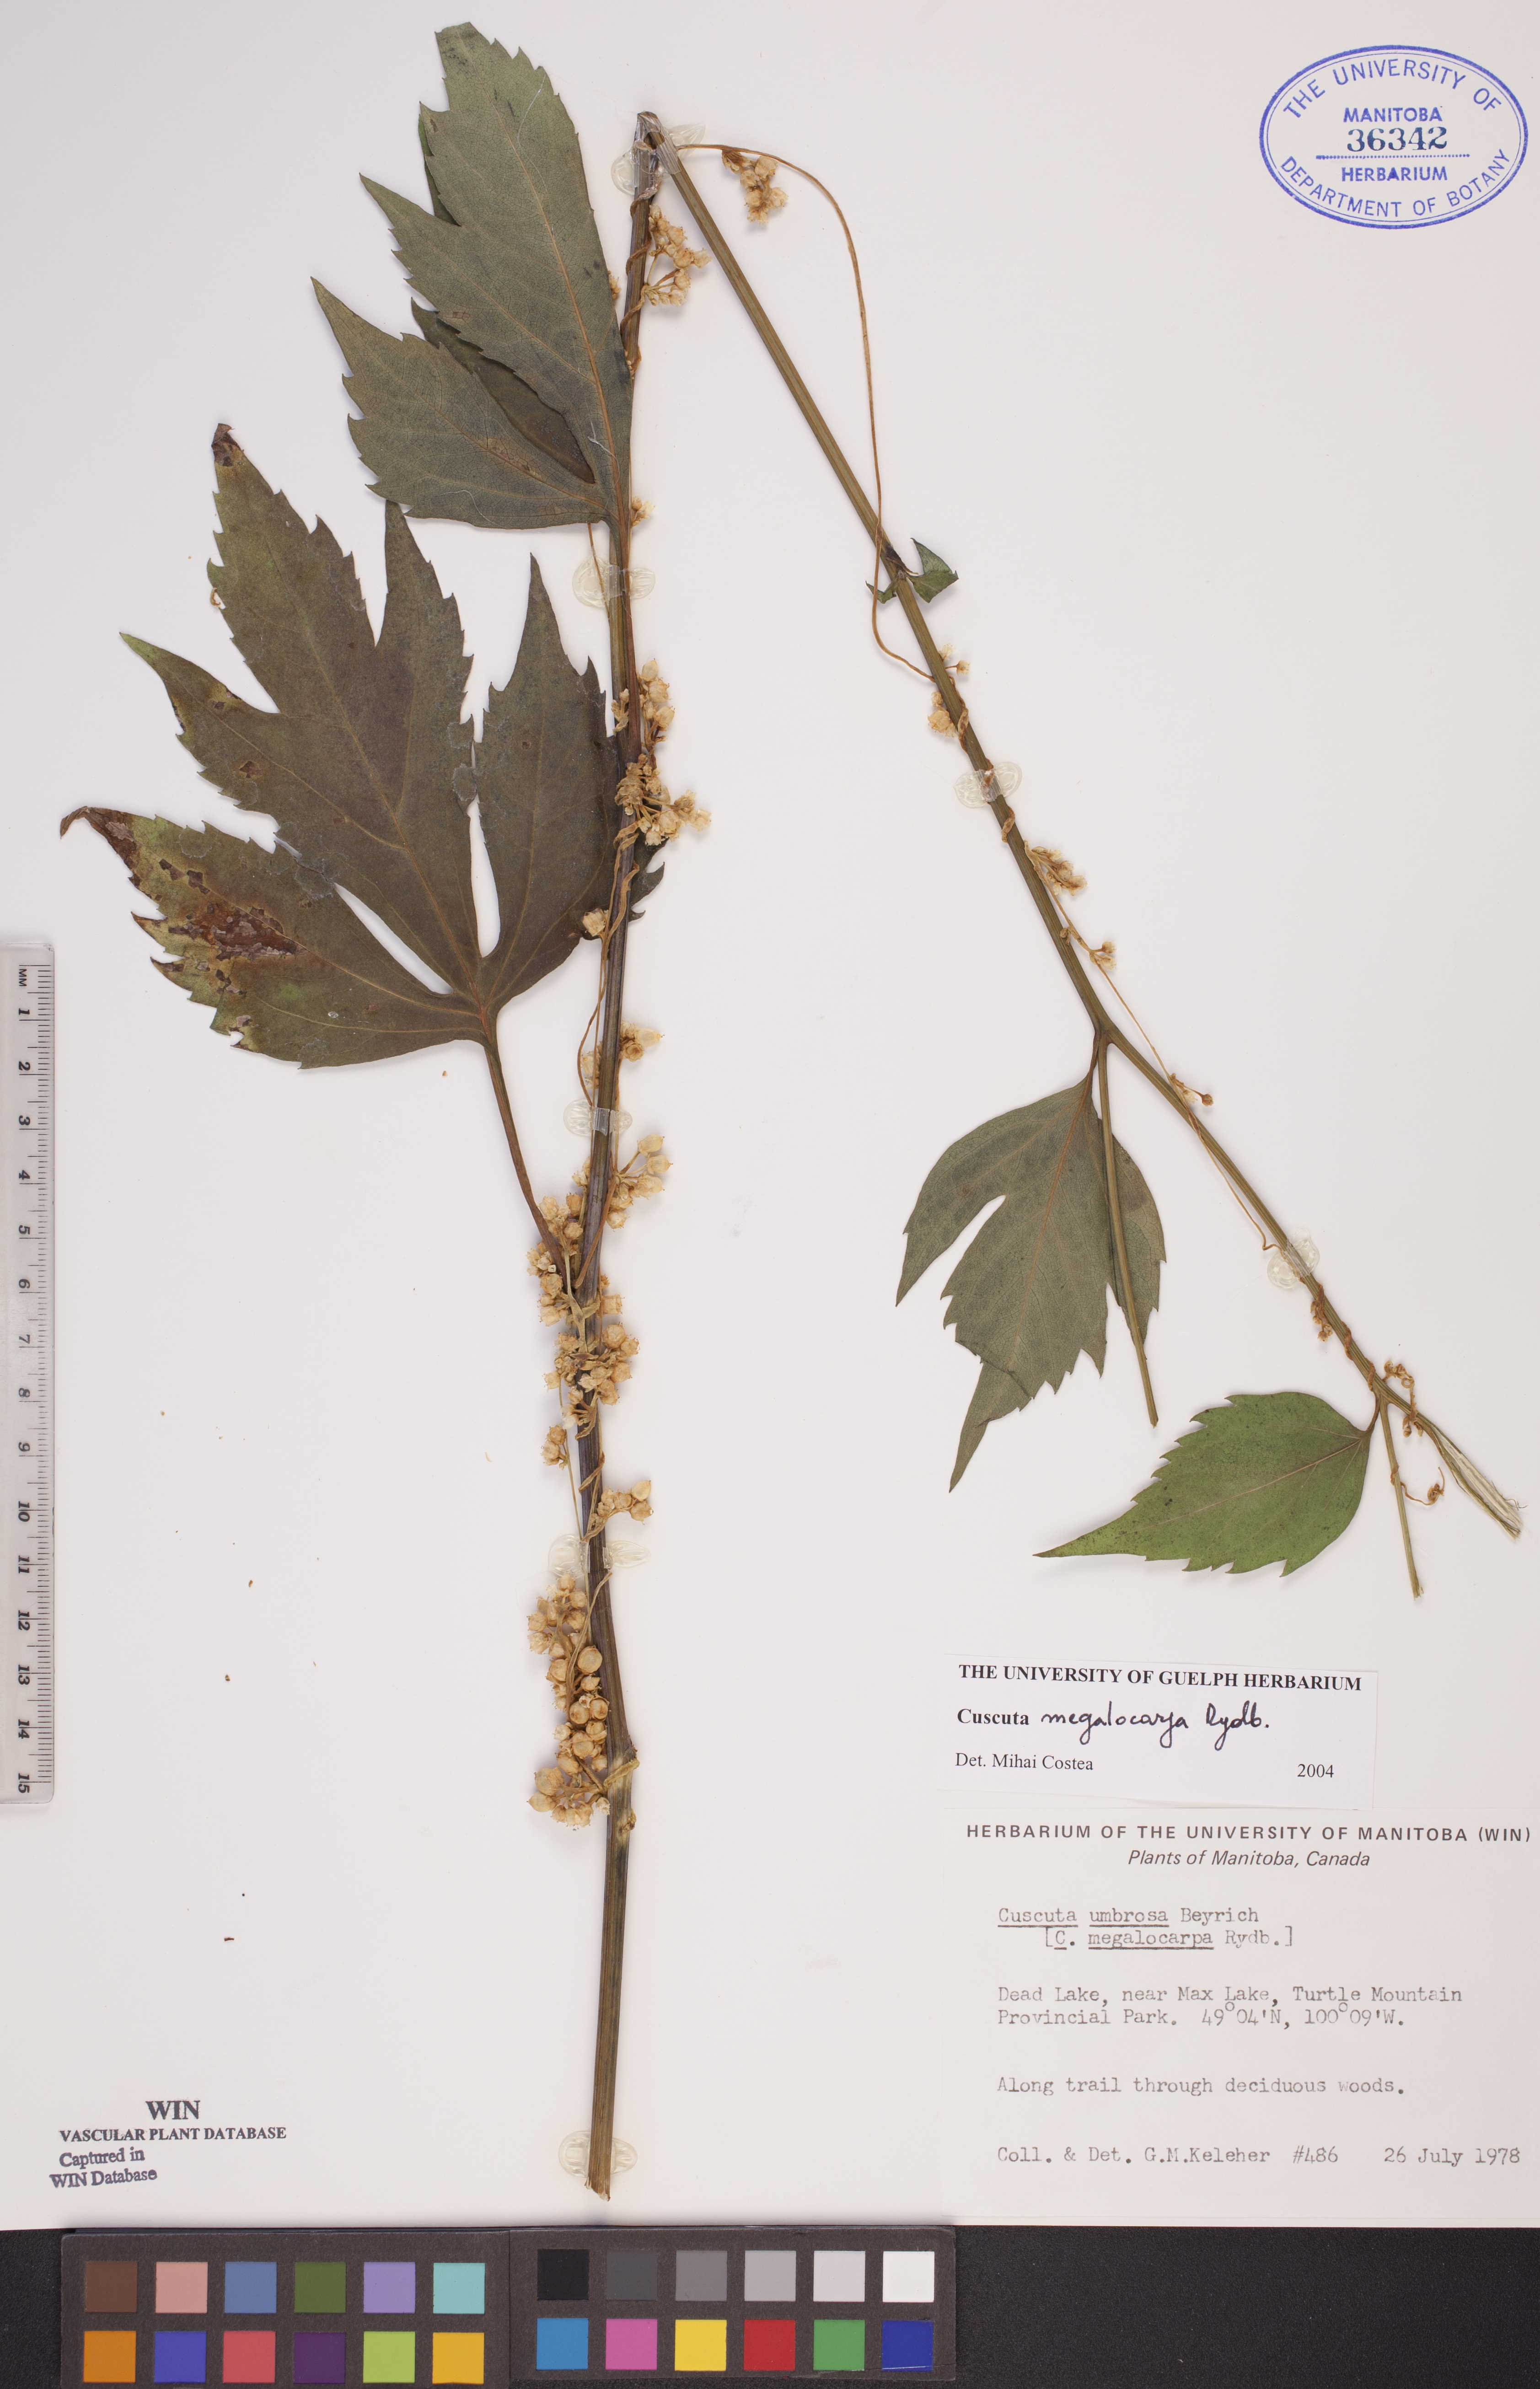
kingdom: Plantae
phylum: Tracheophyta
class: Magnoliopsida
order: Solanales
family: Convolvulaceae
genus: Cuscuta
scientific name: Cuscuta umbrosa
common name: Bigfruit dodder
